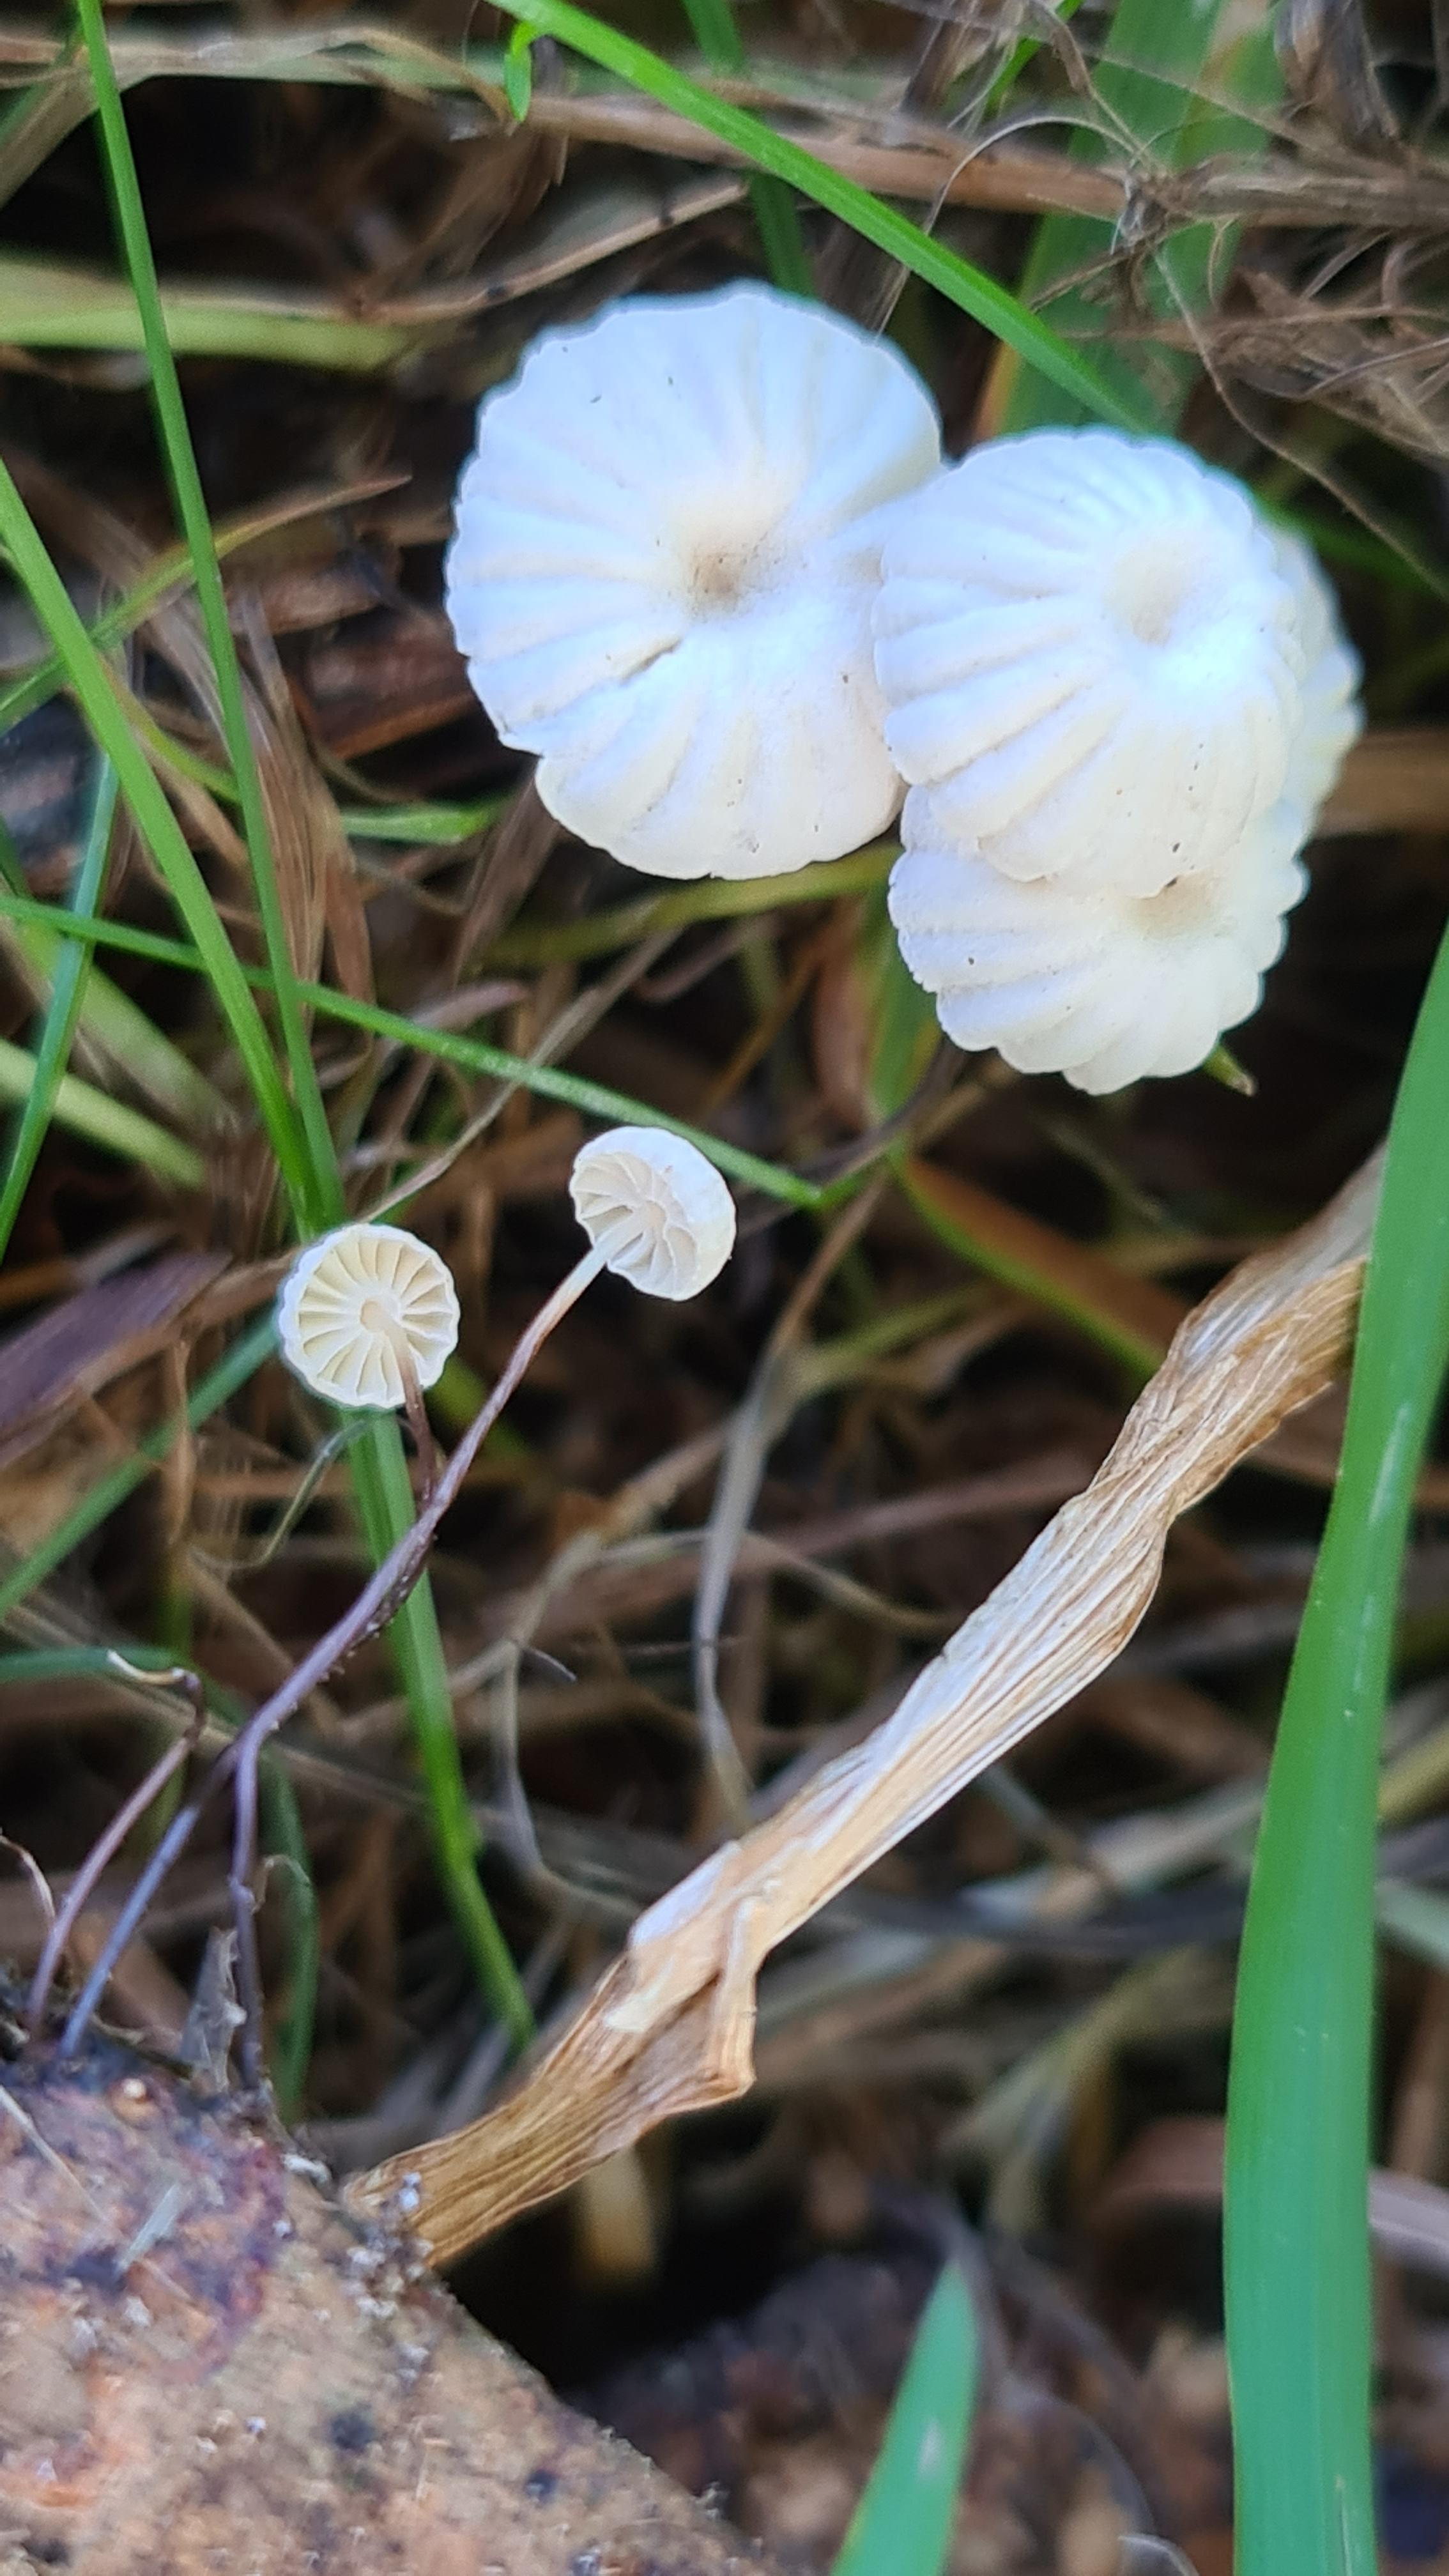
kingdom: Fungi
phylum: Basidiomycota
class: Agaricomycetes
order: Agaricales
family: Marasmiaceae
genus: Marasmius
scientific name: Marasmius rotula
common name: hjul-bruskhat
